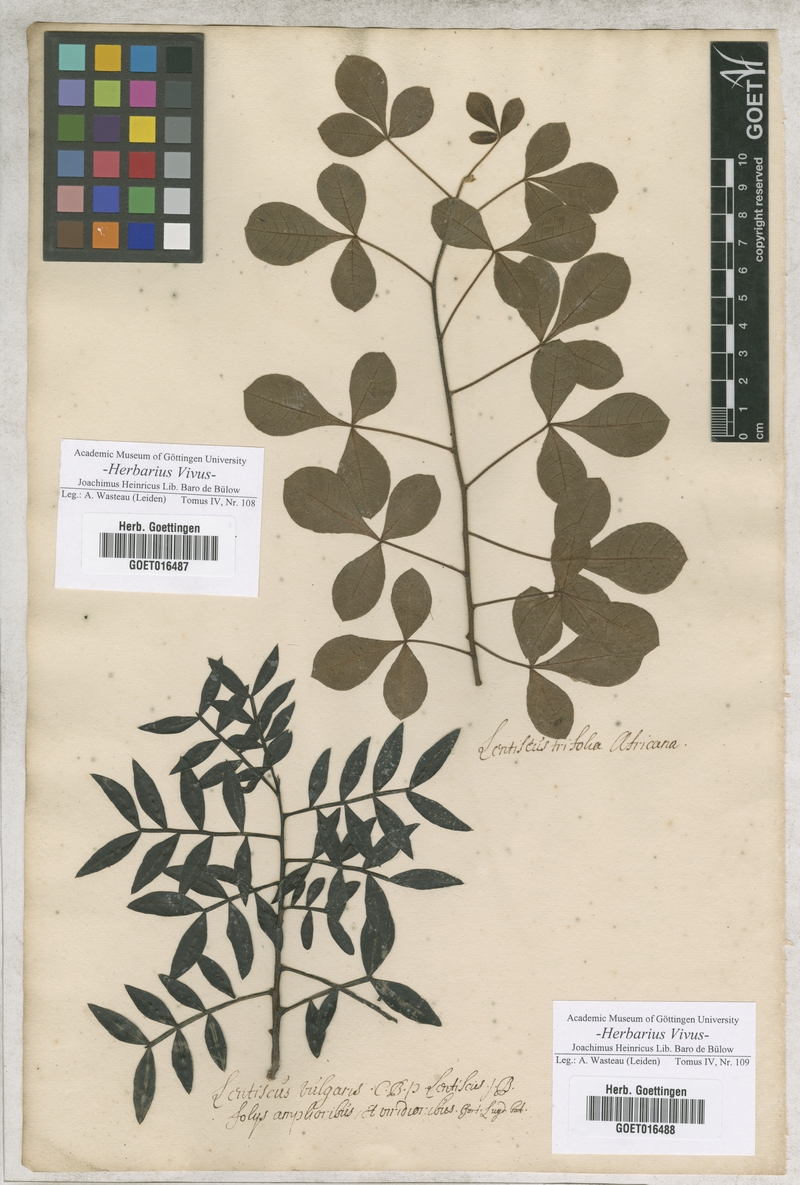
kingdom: Plantae
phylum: Tracheophyta
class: Magnoliopsida
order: Sapindales
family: Anacardiaceae
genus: Pistacia
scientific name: Pistacia
